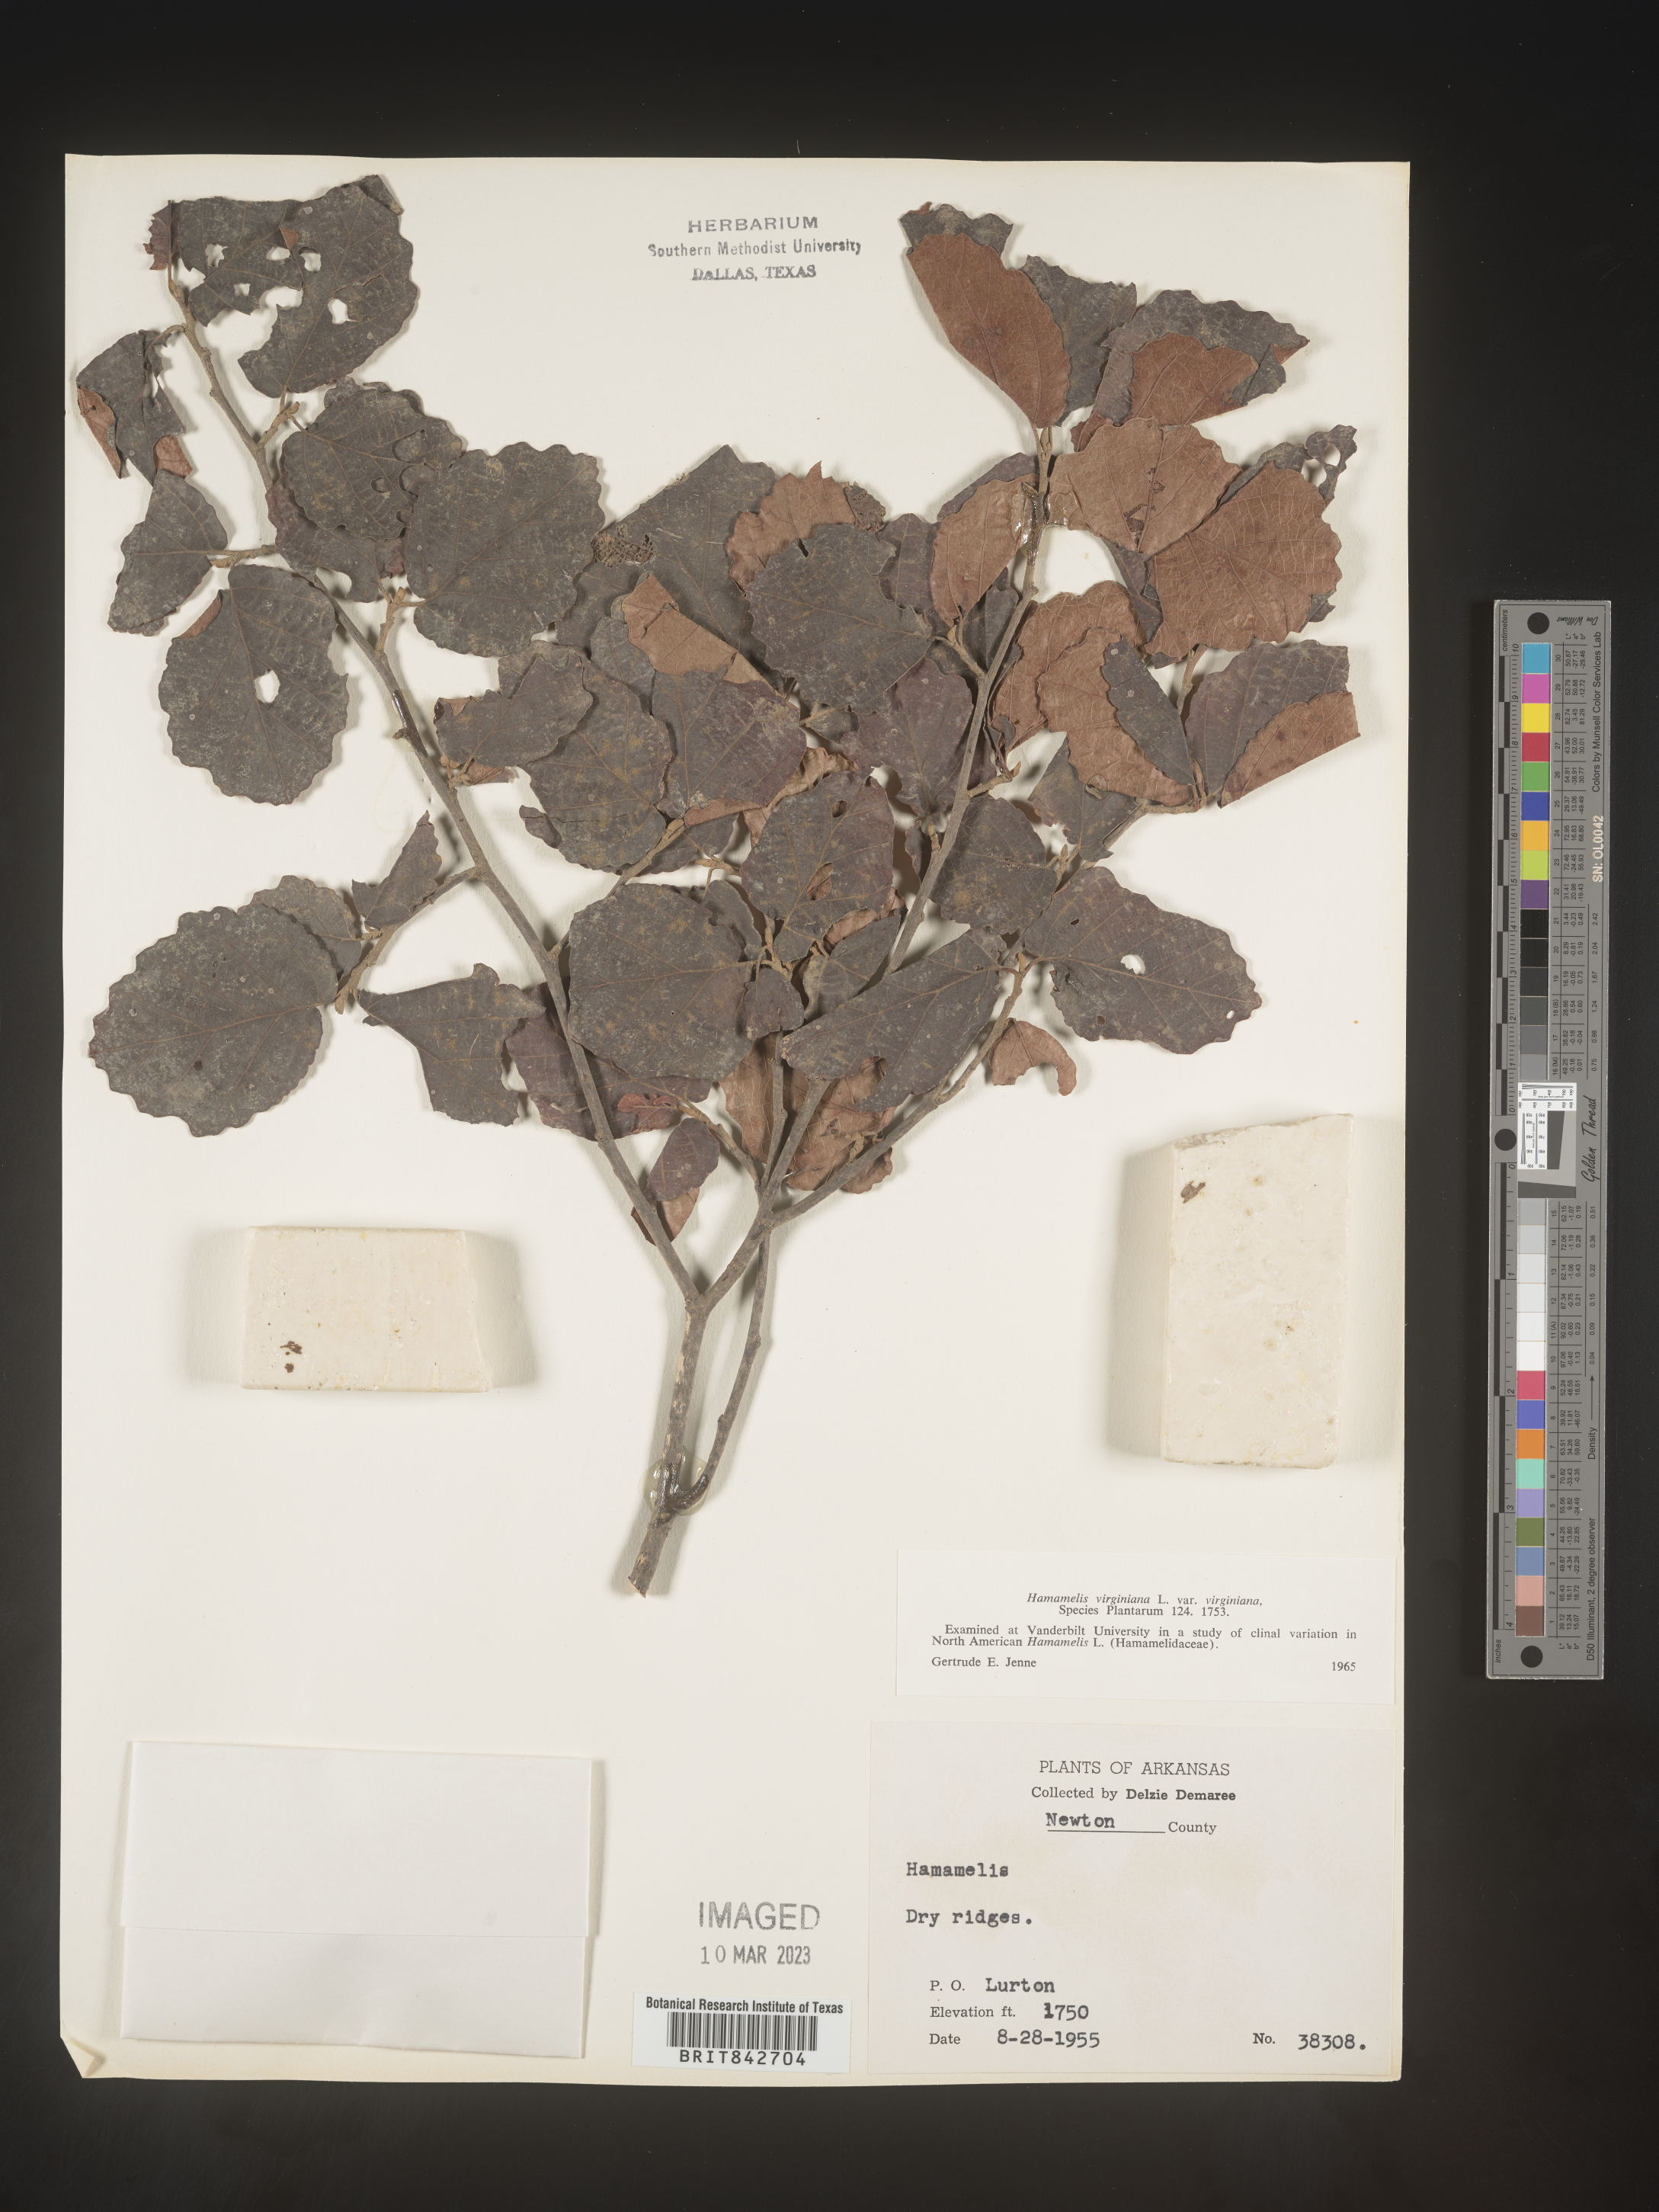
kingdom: Plantae
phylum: Tracheophyta
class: Magnoliopsida
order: Saxifragales
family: Hamamelidaceae
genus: Hamamelis
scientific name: Hamamelis virginiana
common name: Witch-hazel
